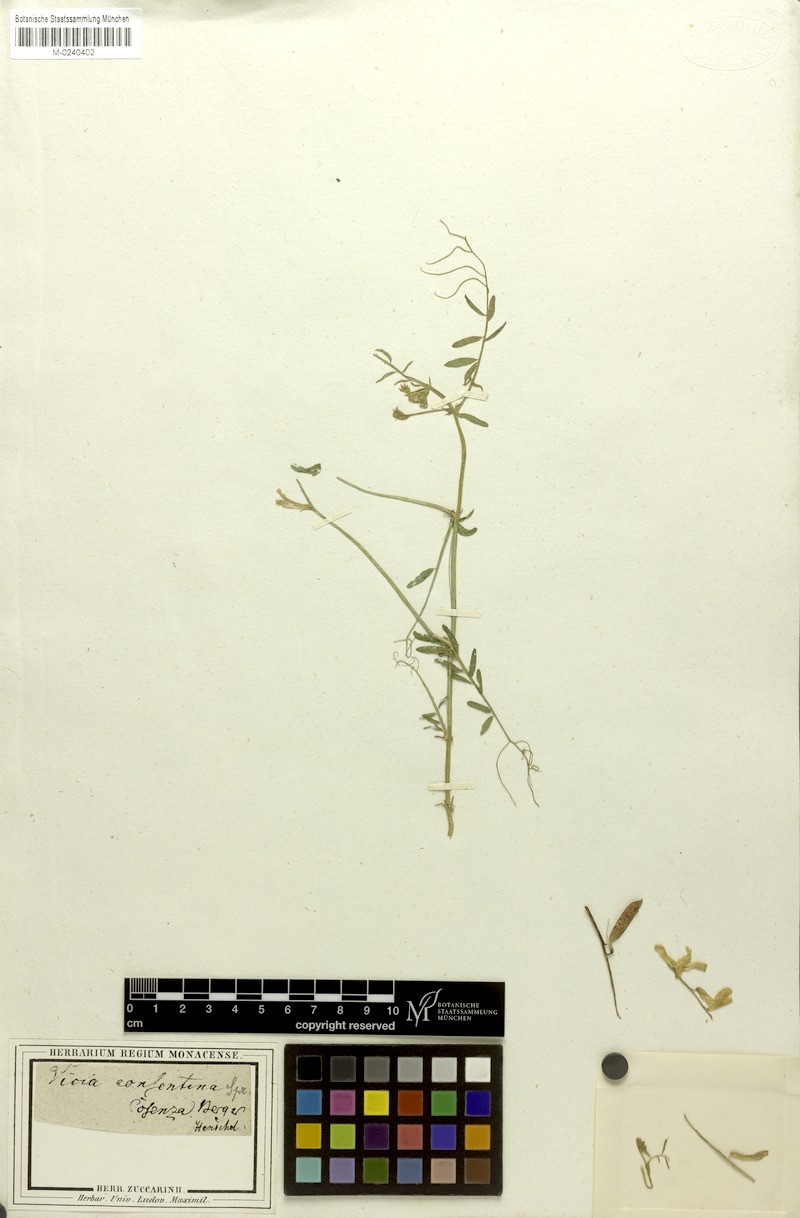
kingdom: Plantae
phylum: Tracheophyta
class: Magnoliopsida
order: Fabales
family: Fabaceae
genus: Vicia
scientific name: Vicia villosa
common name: Fodder vetch
